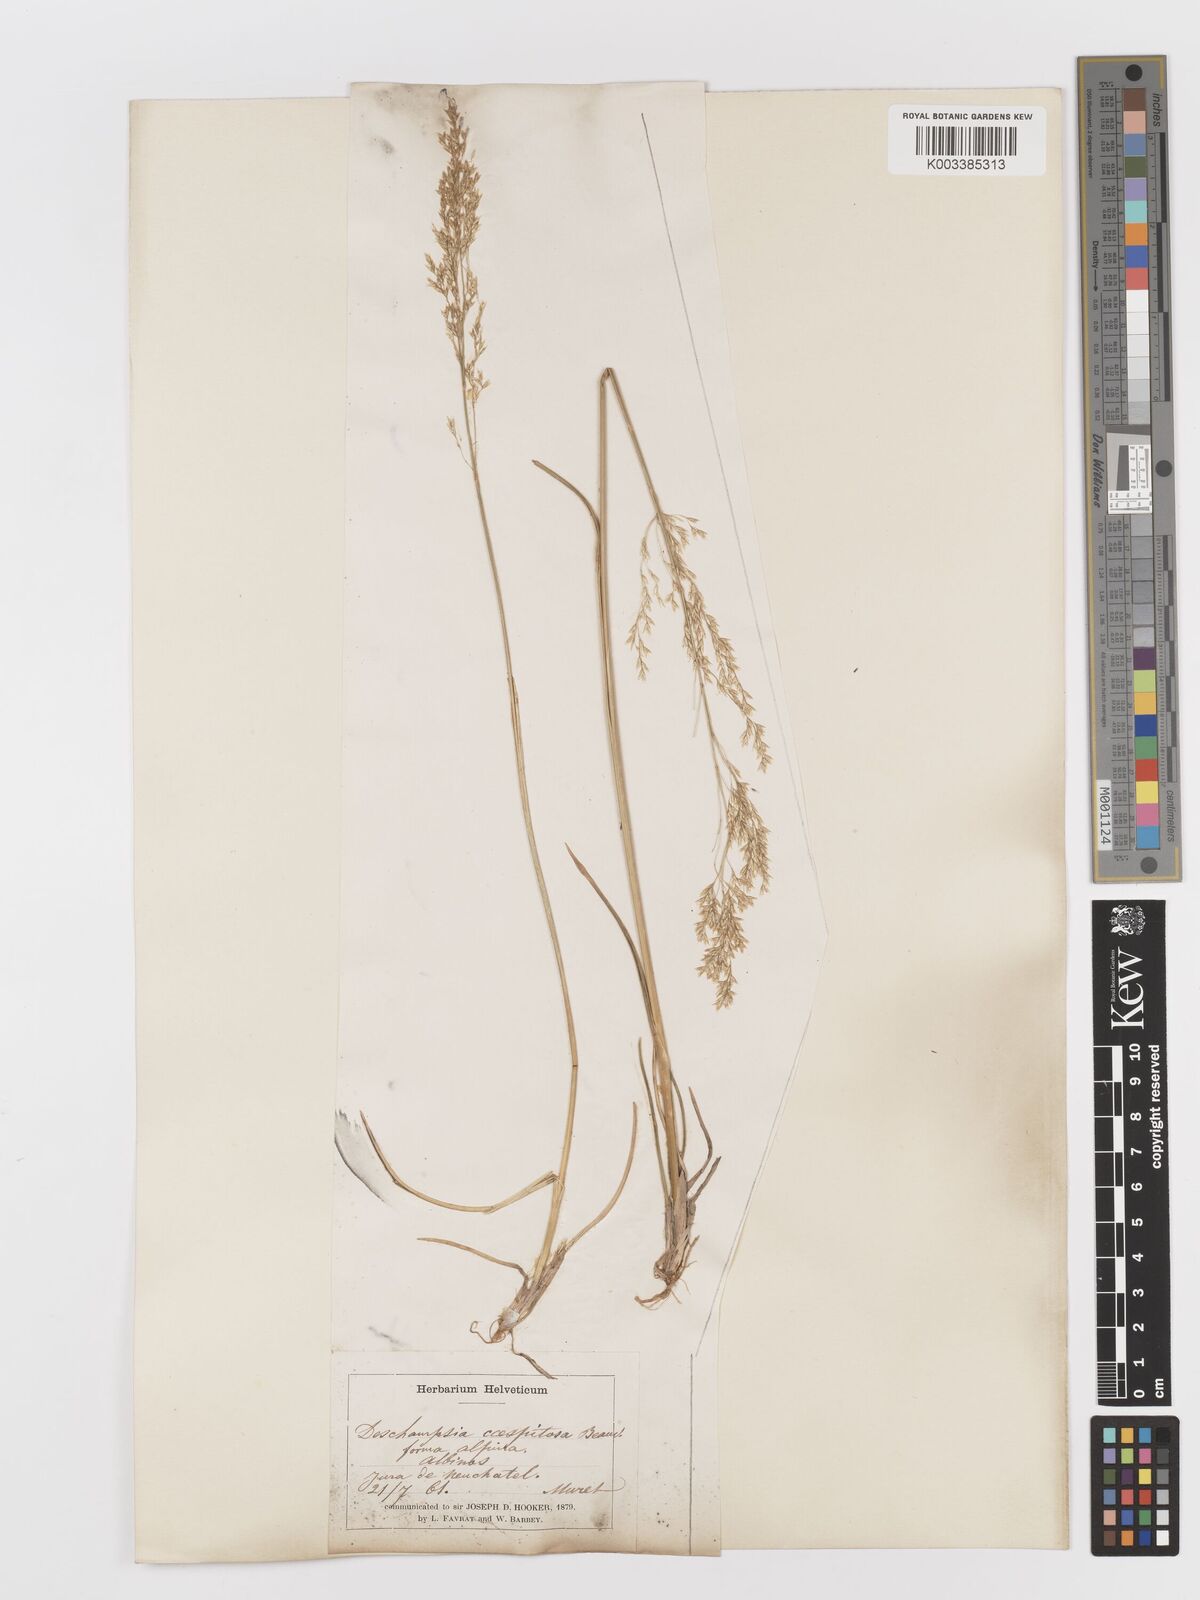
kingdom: Plantae
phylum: Tracheophyta
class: Liliopsida
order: Poales
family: Poaceae
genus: Deschampsia
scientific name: Deschampsia cespitosa
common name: Tufted hair-grass
